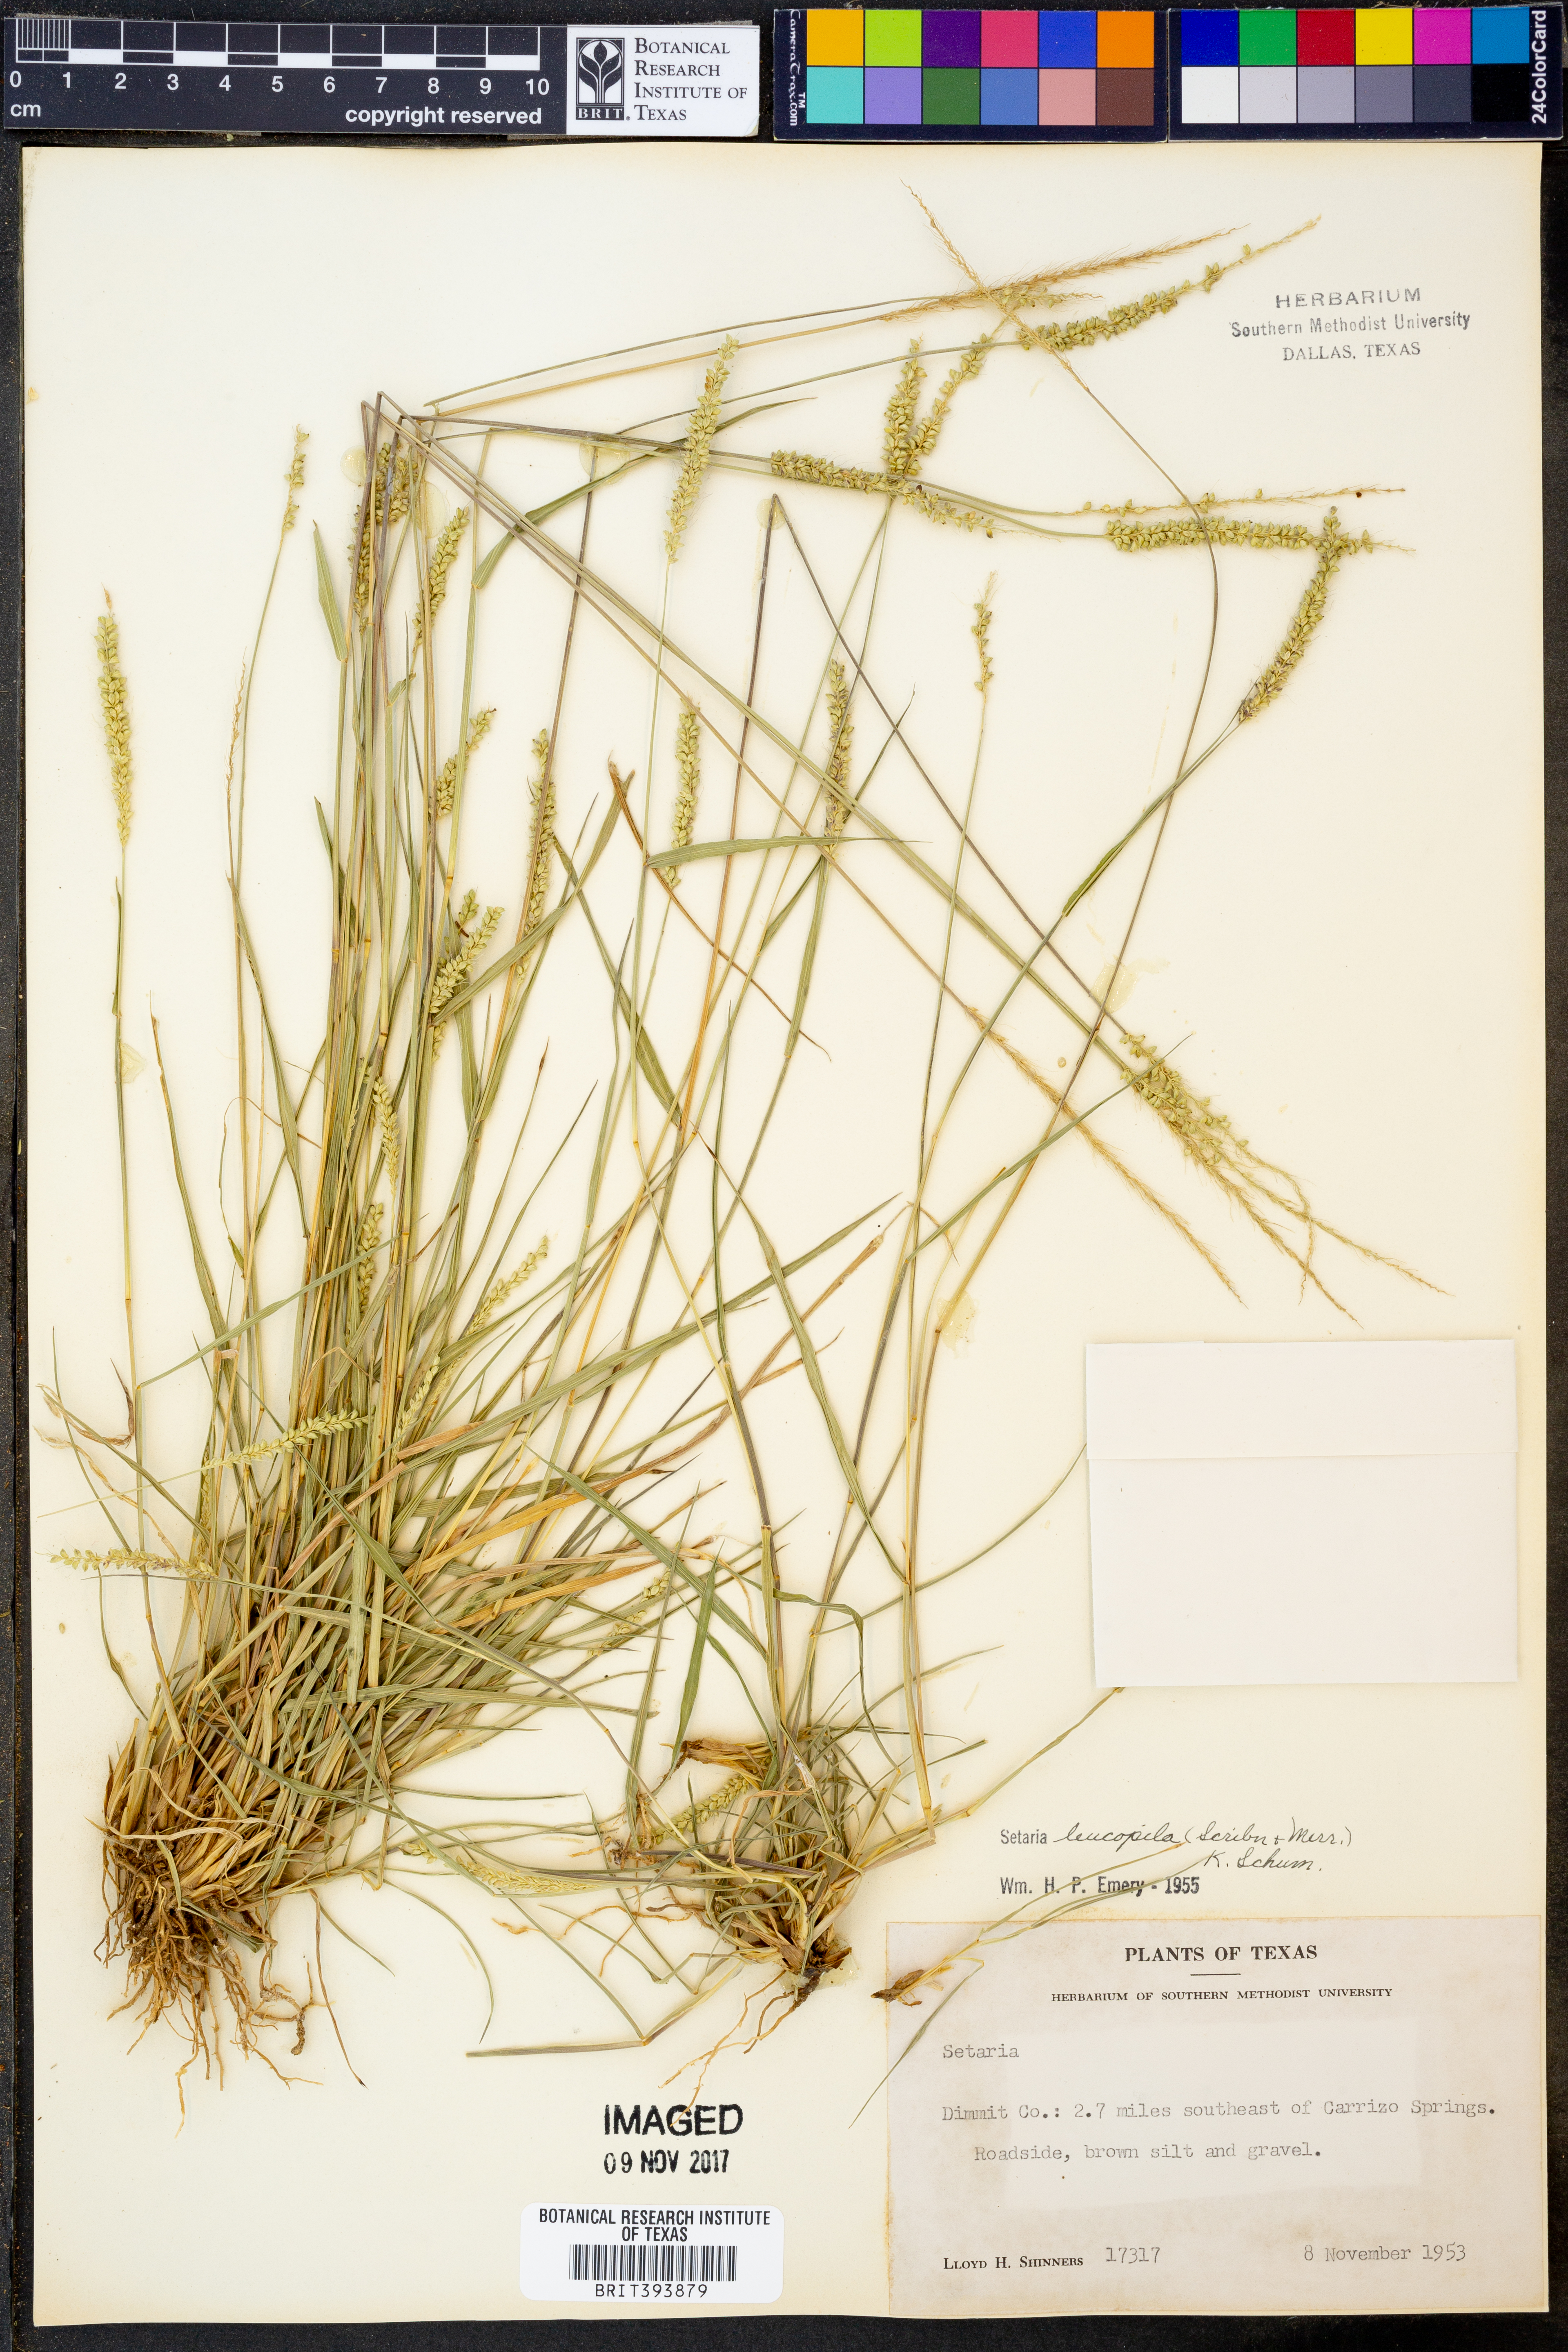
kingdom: Plantae
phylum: Tracheophyta
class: Liliopsida
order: Poales
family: Poaceae
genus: Setaria
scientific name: Setaria leucopila
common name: Plains bristle grass
